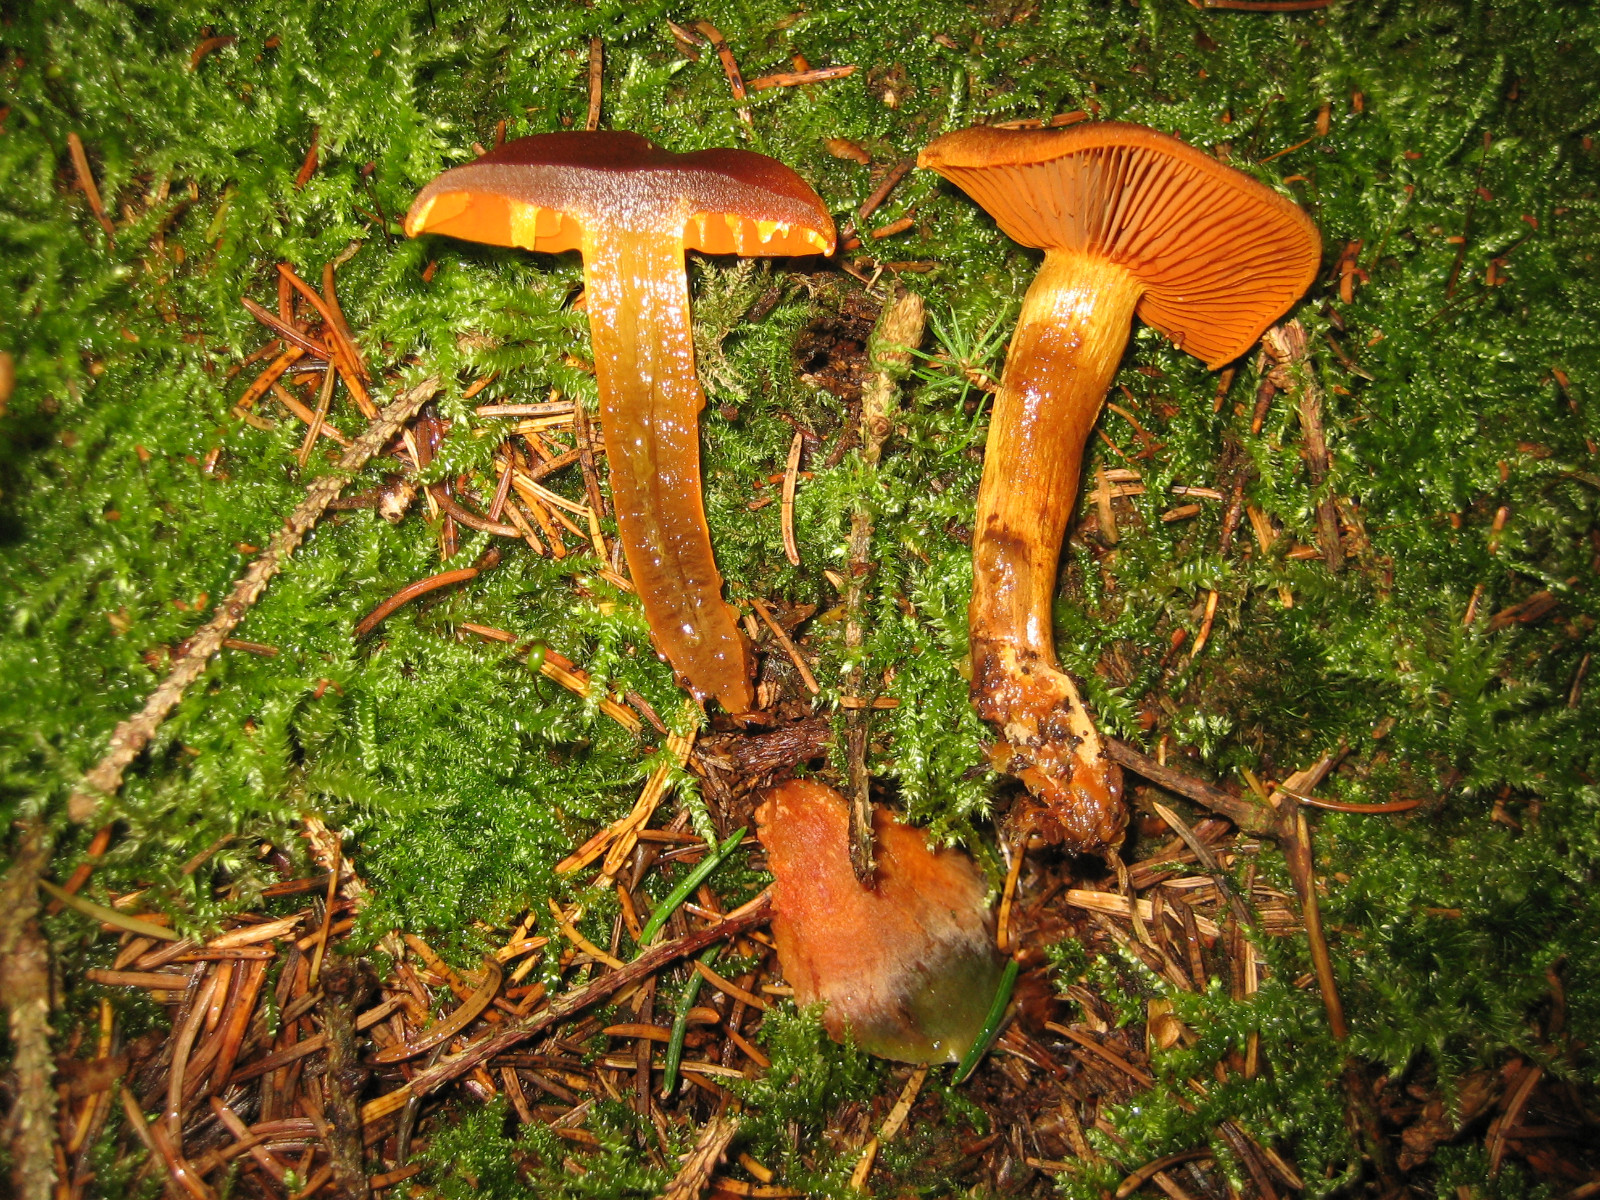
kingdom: Fungi
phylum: Basidiomycota
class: Agaricomycetes
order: Agaricales
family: Cortinariaceae
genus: Cortinarius
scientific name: Cortinarius malicorius
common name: grønkødet slørhat
